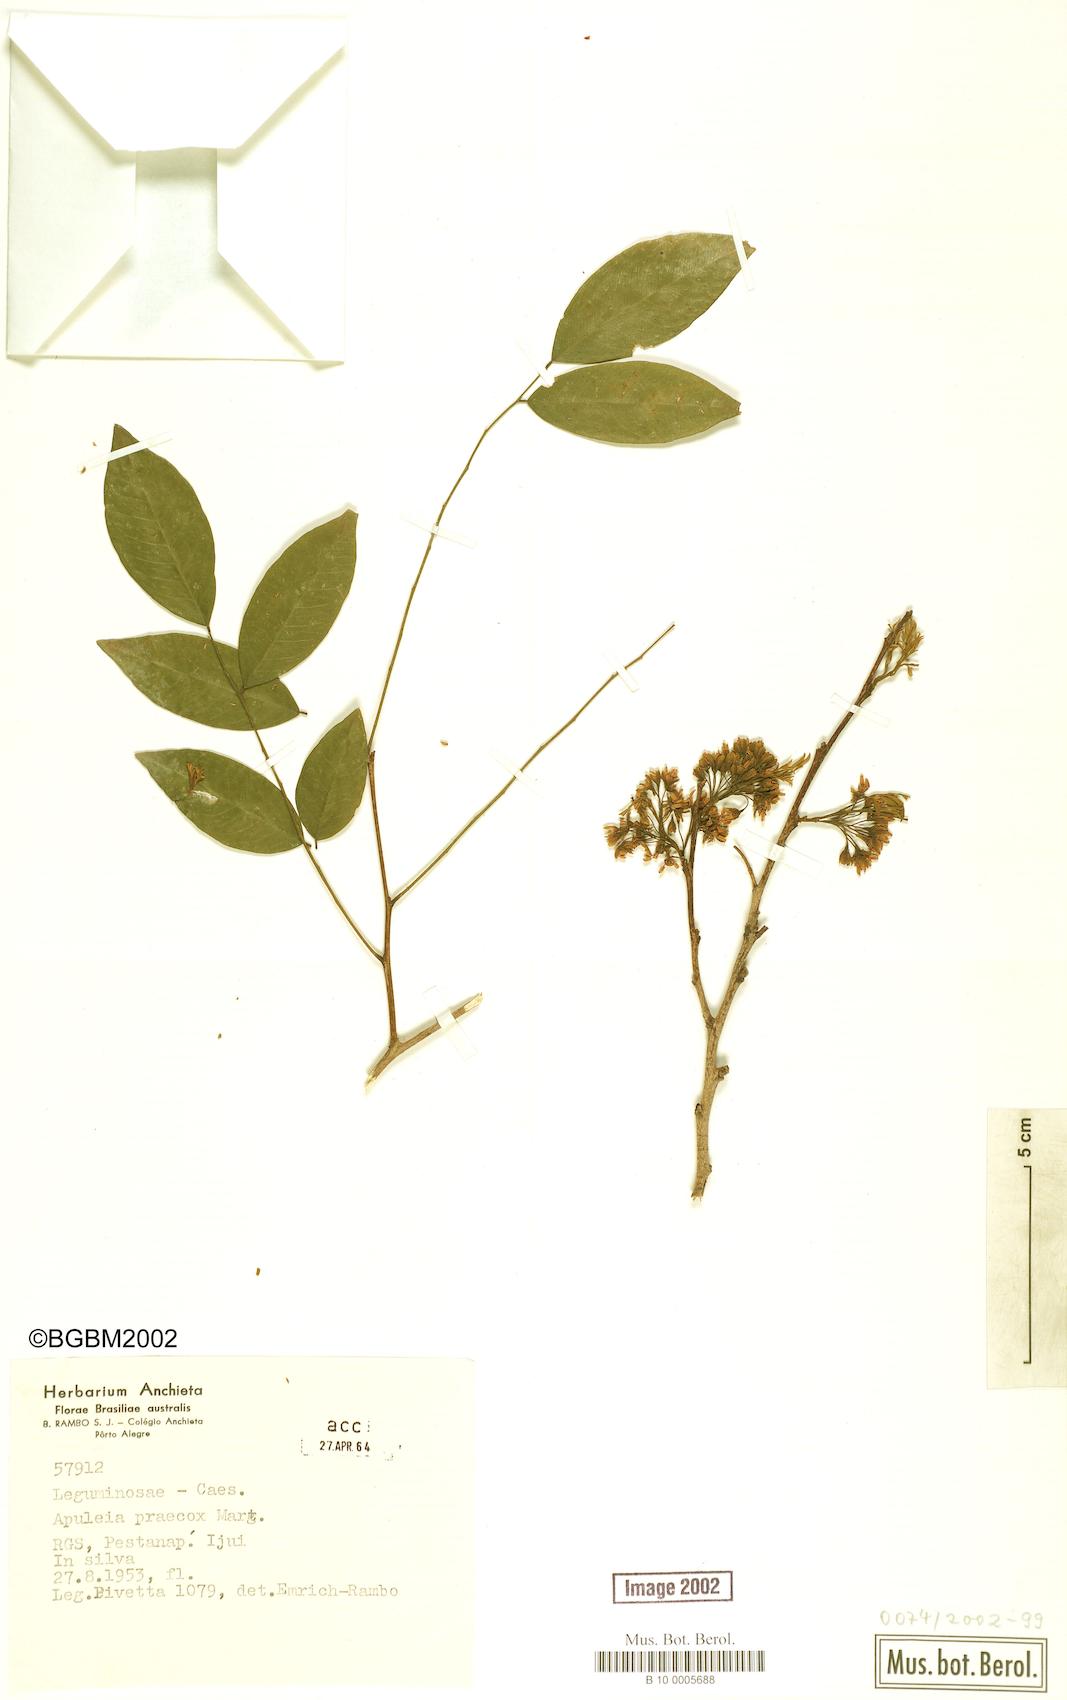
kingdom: Plantae
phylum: Tracheophyta
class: Magnoliopsida
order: Fabales
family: Fabaceae
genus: Apuleia
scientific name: Apuleia leiocarpa
